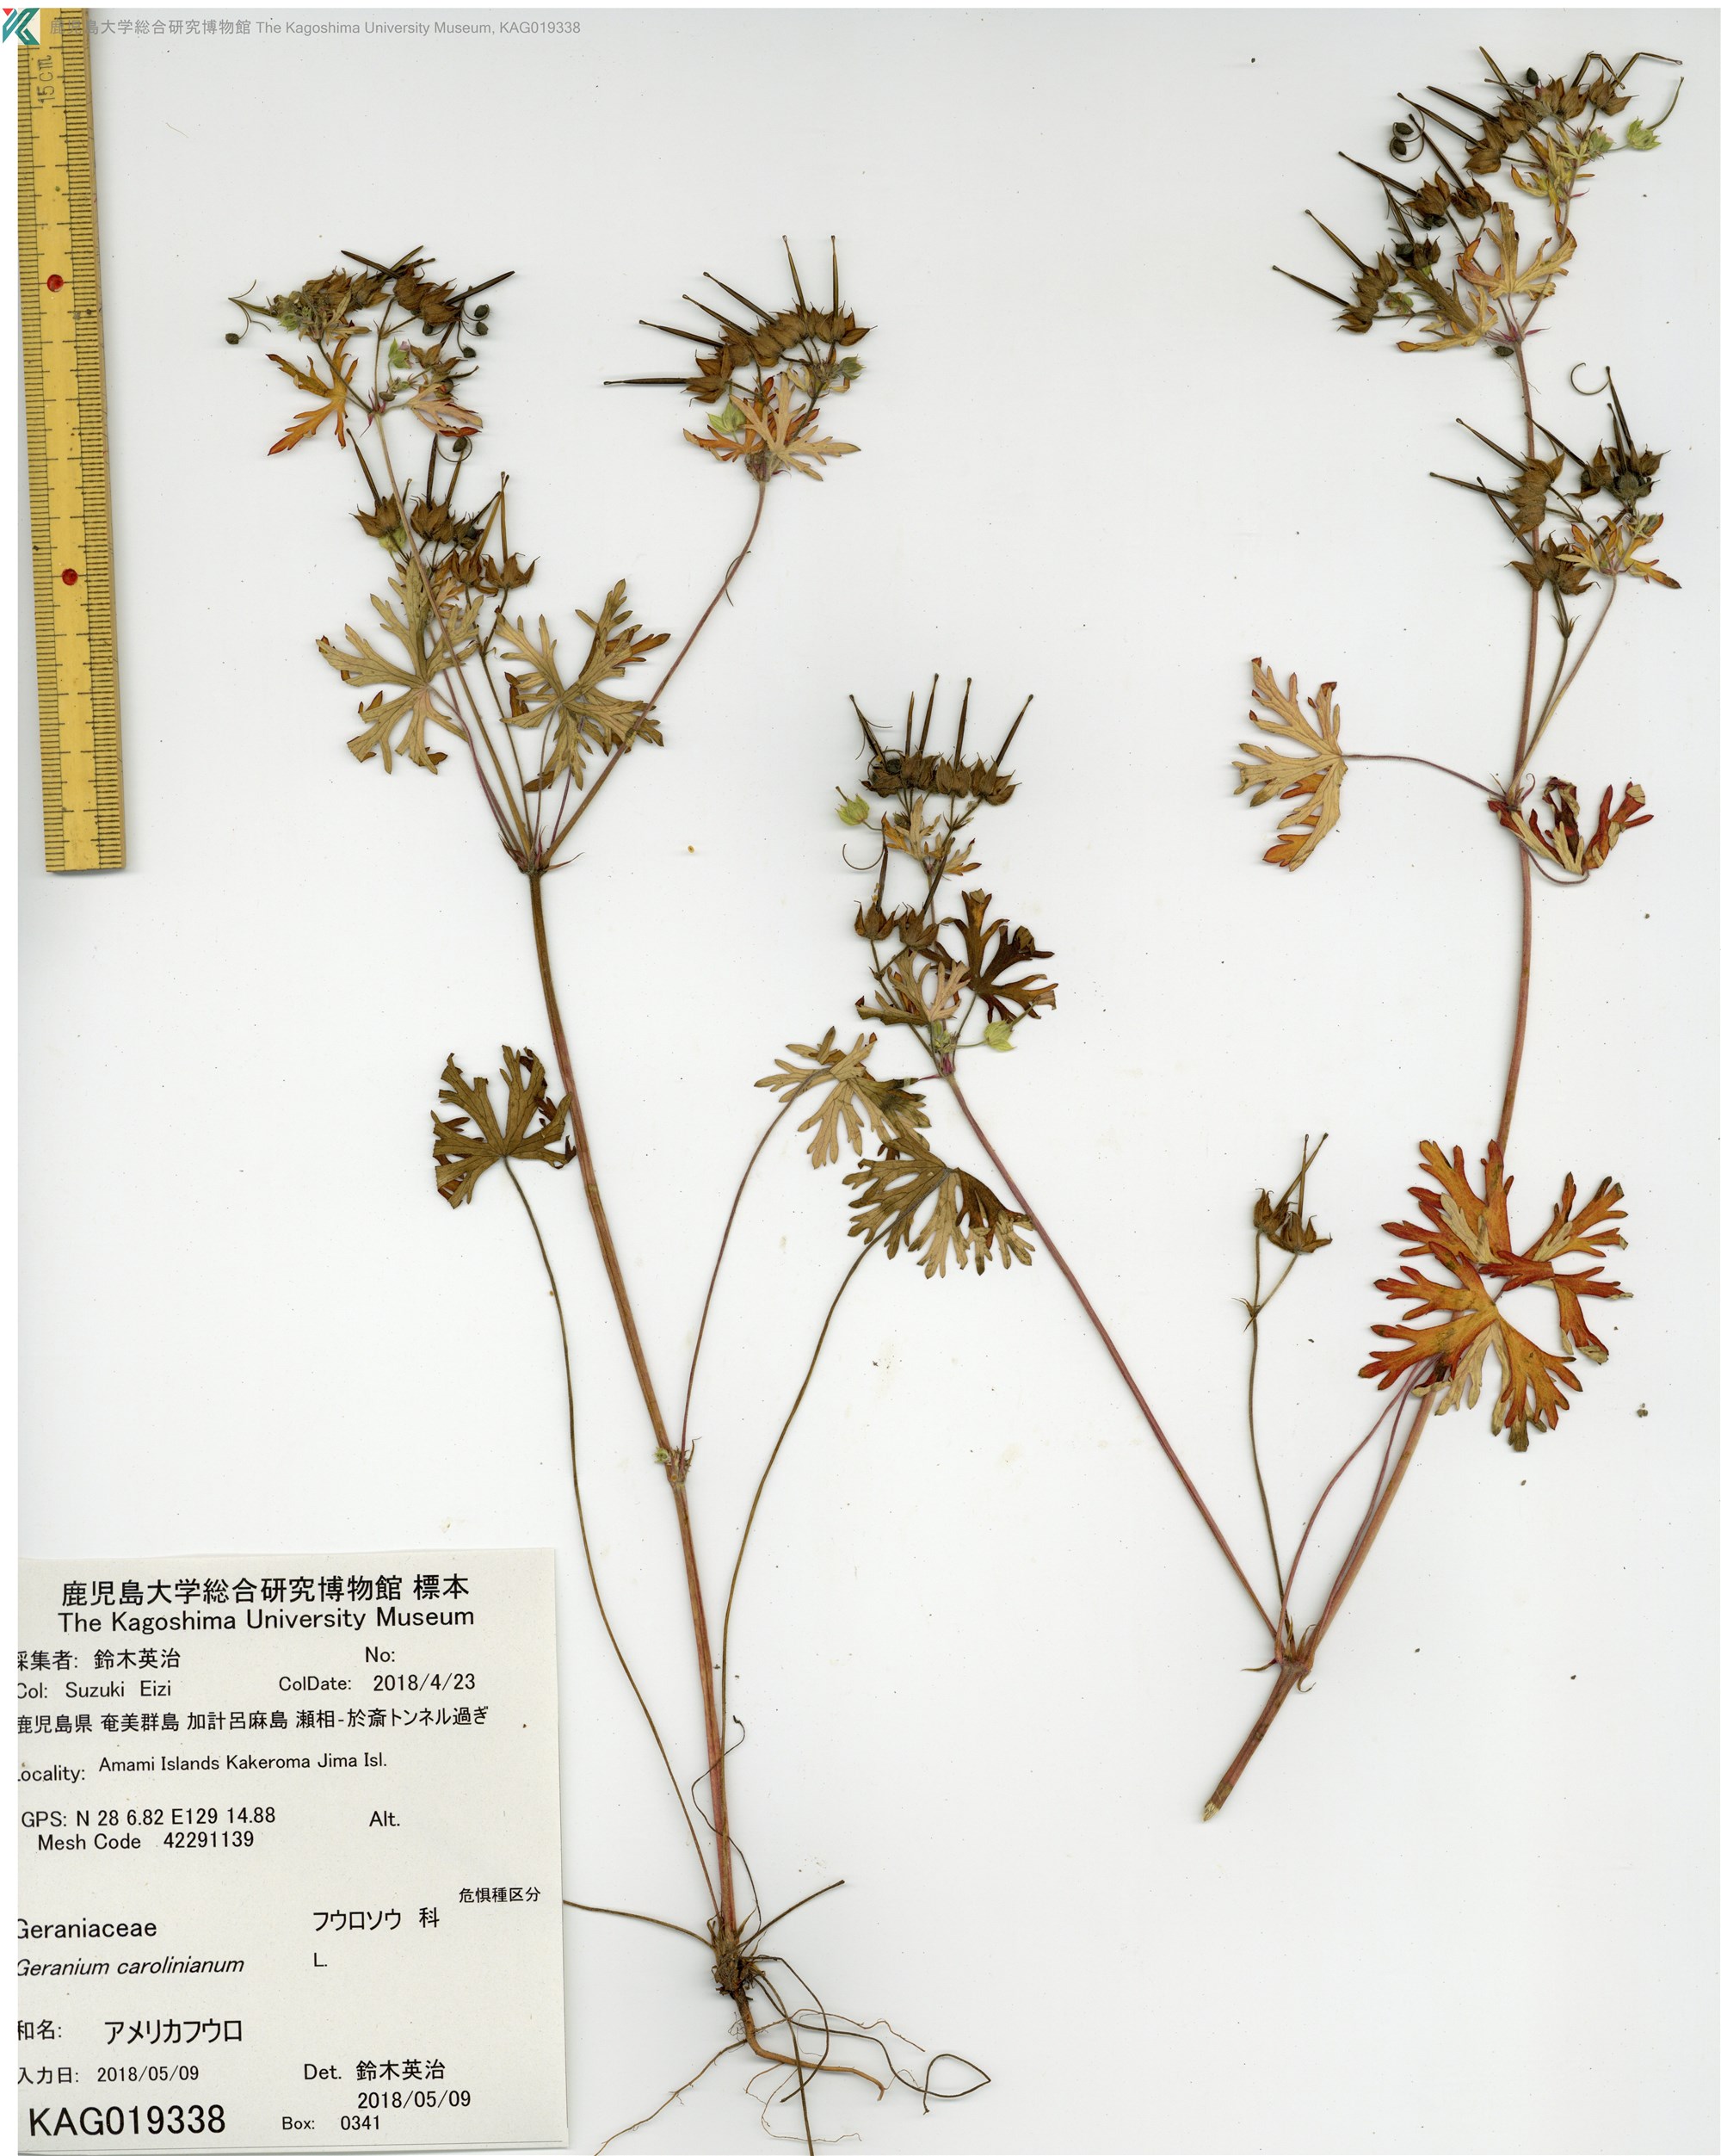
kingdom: Plantae
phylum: Tracheophyta
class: Magnoliopsida
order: Geraniales
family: Geraniaceae
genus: Geranium
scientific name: Geranium carolinianum
